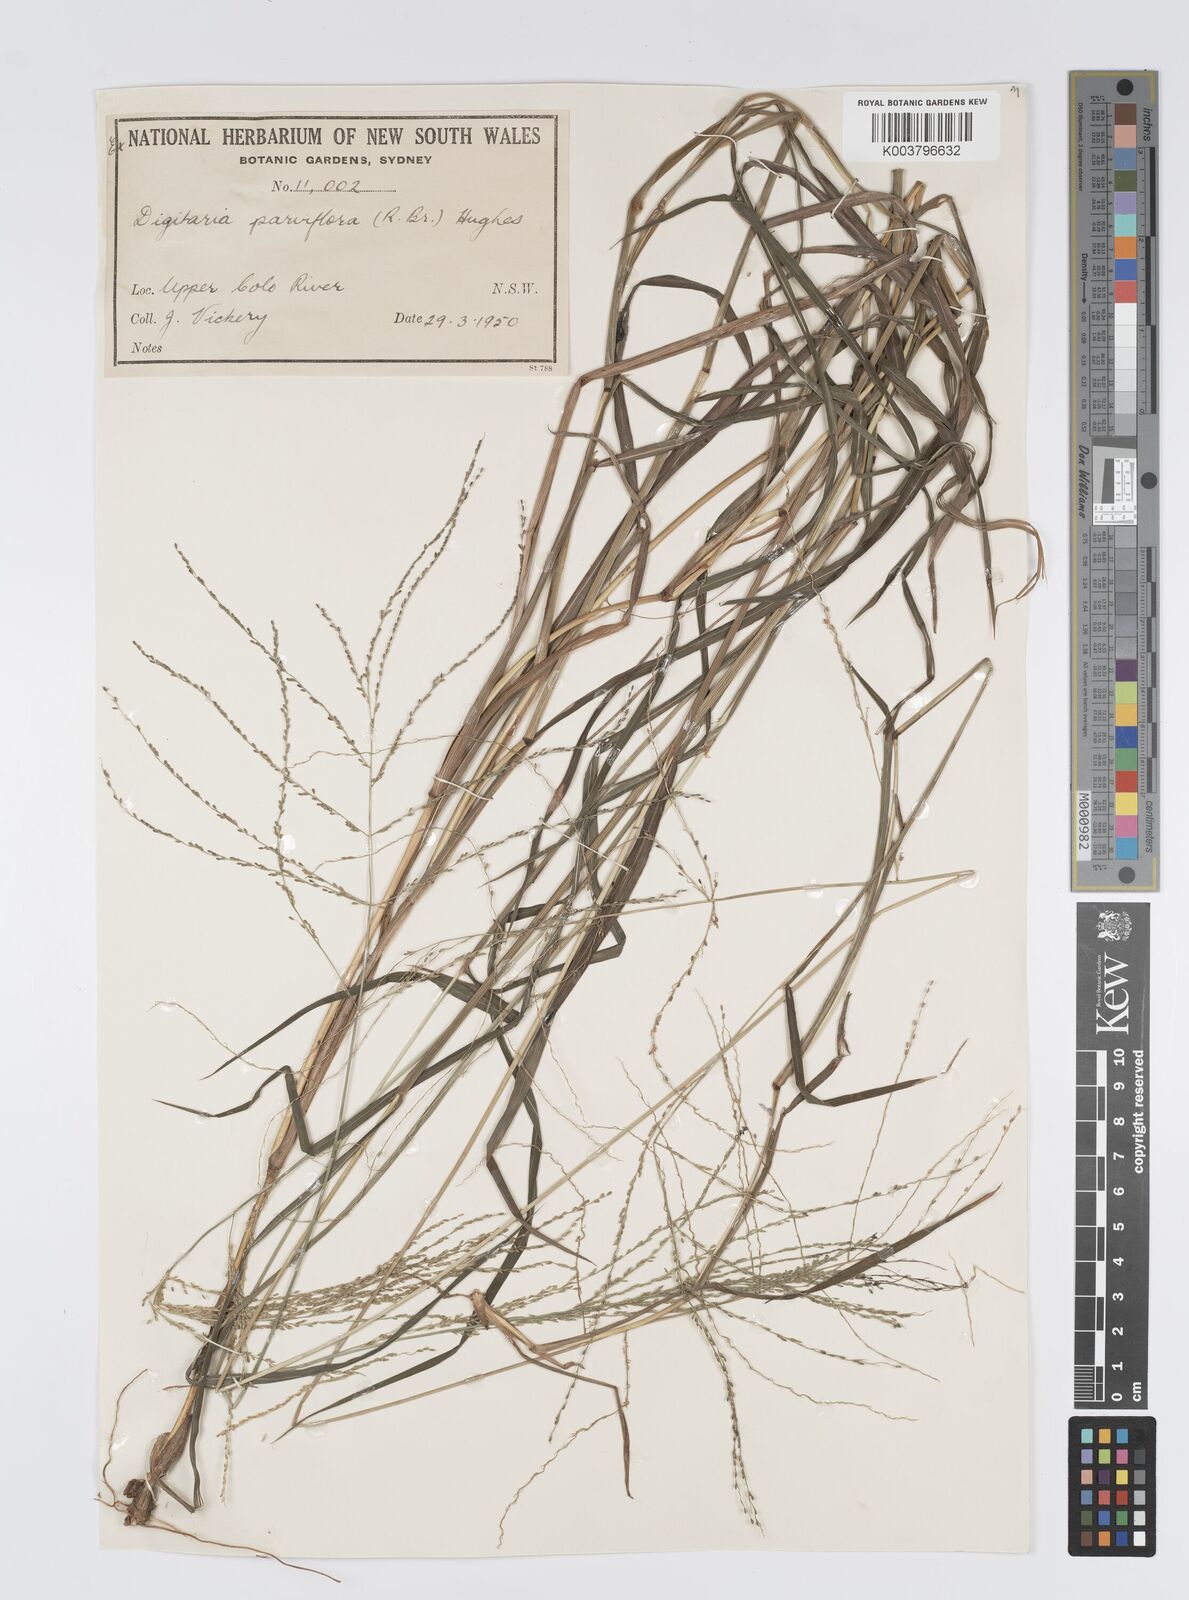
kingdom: Plantae
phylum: Tracheophyta
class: Liliopsida
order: Poales
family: Poaceae
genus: Digitaria
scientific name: Digitaria parviflora
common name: Small-flower finger grass
